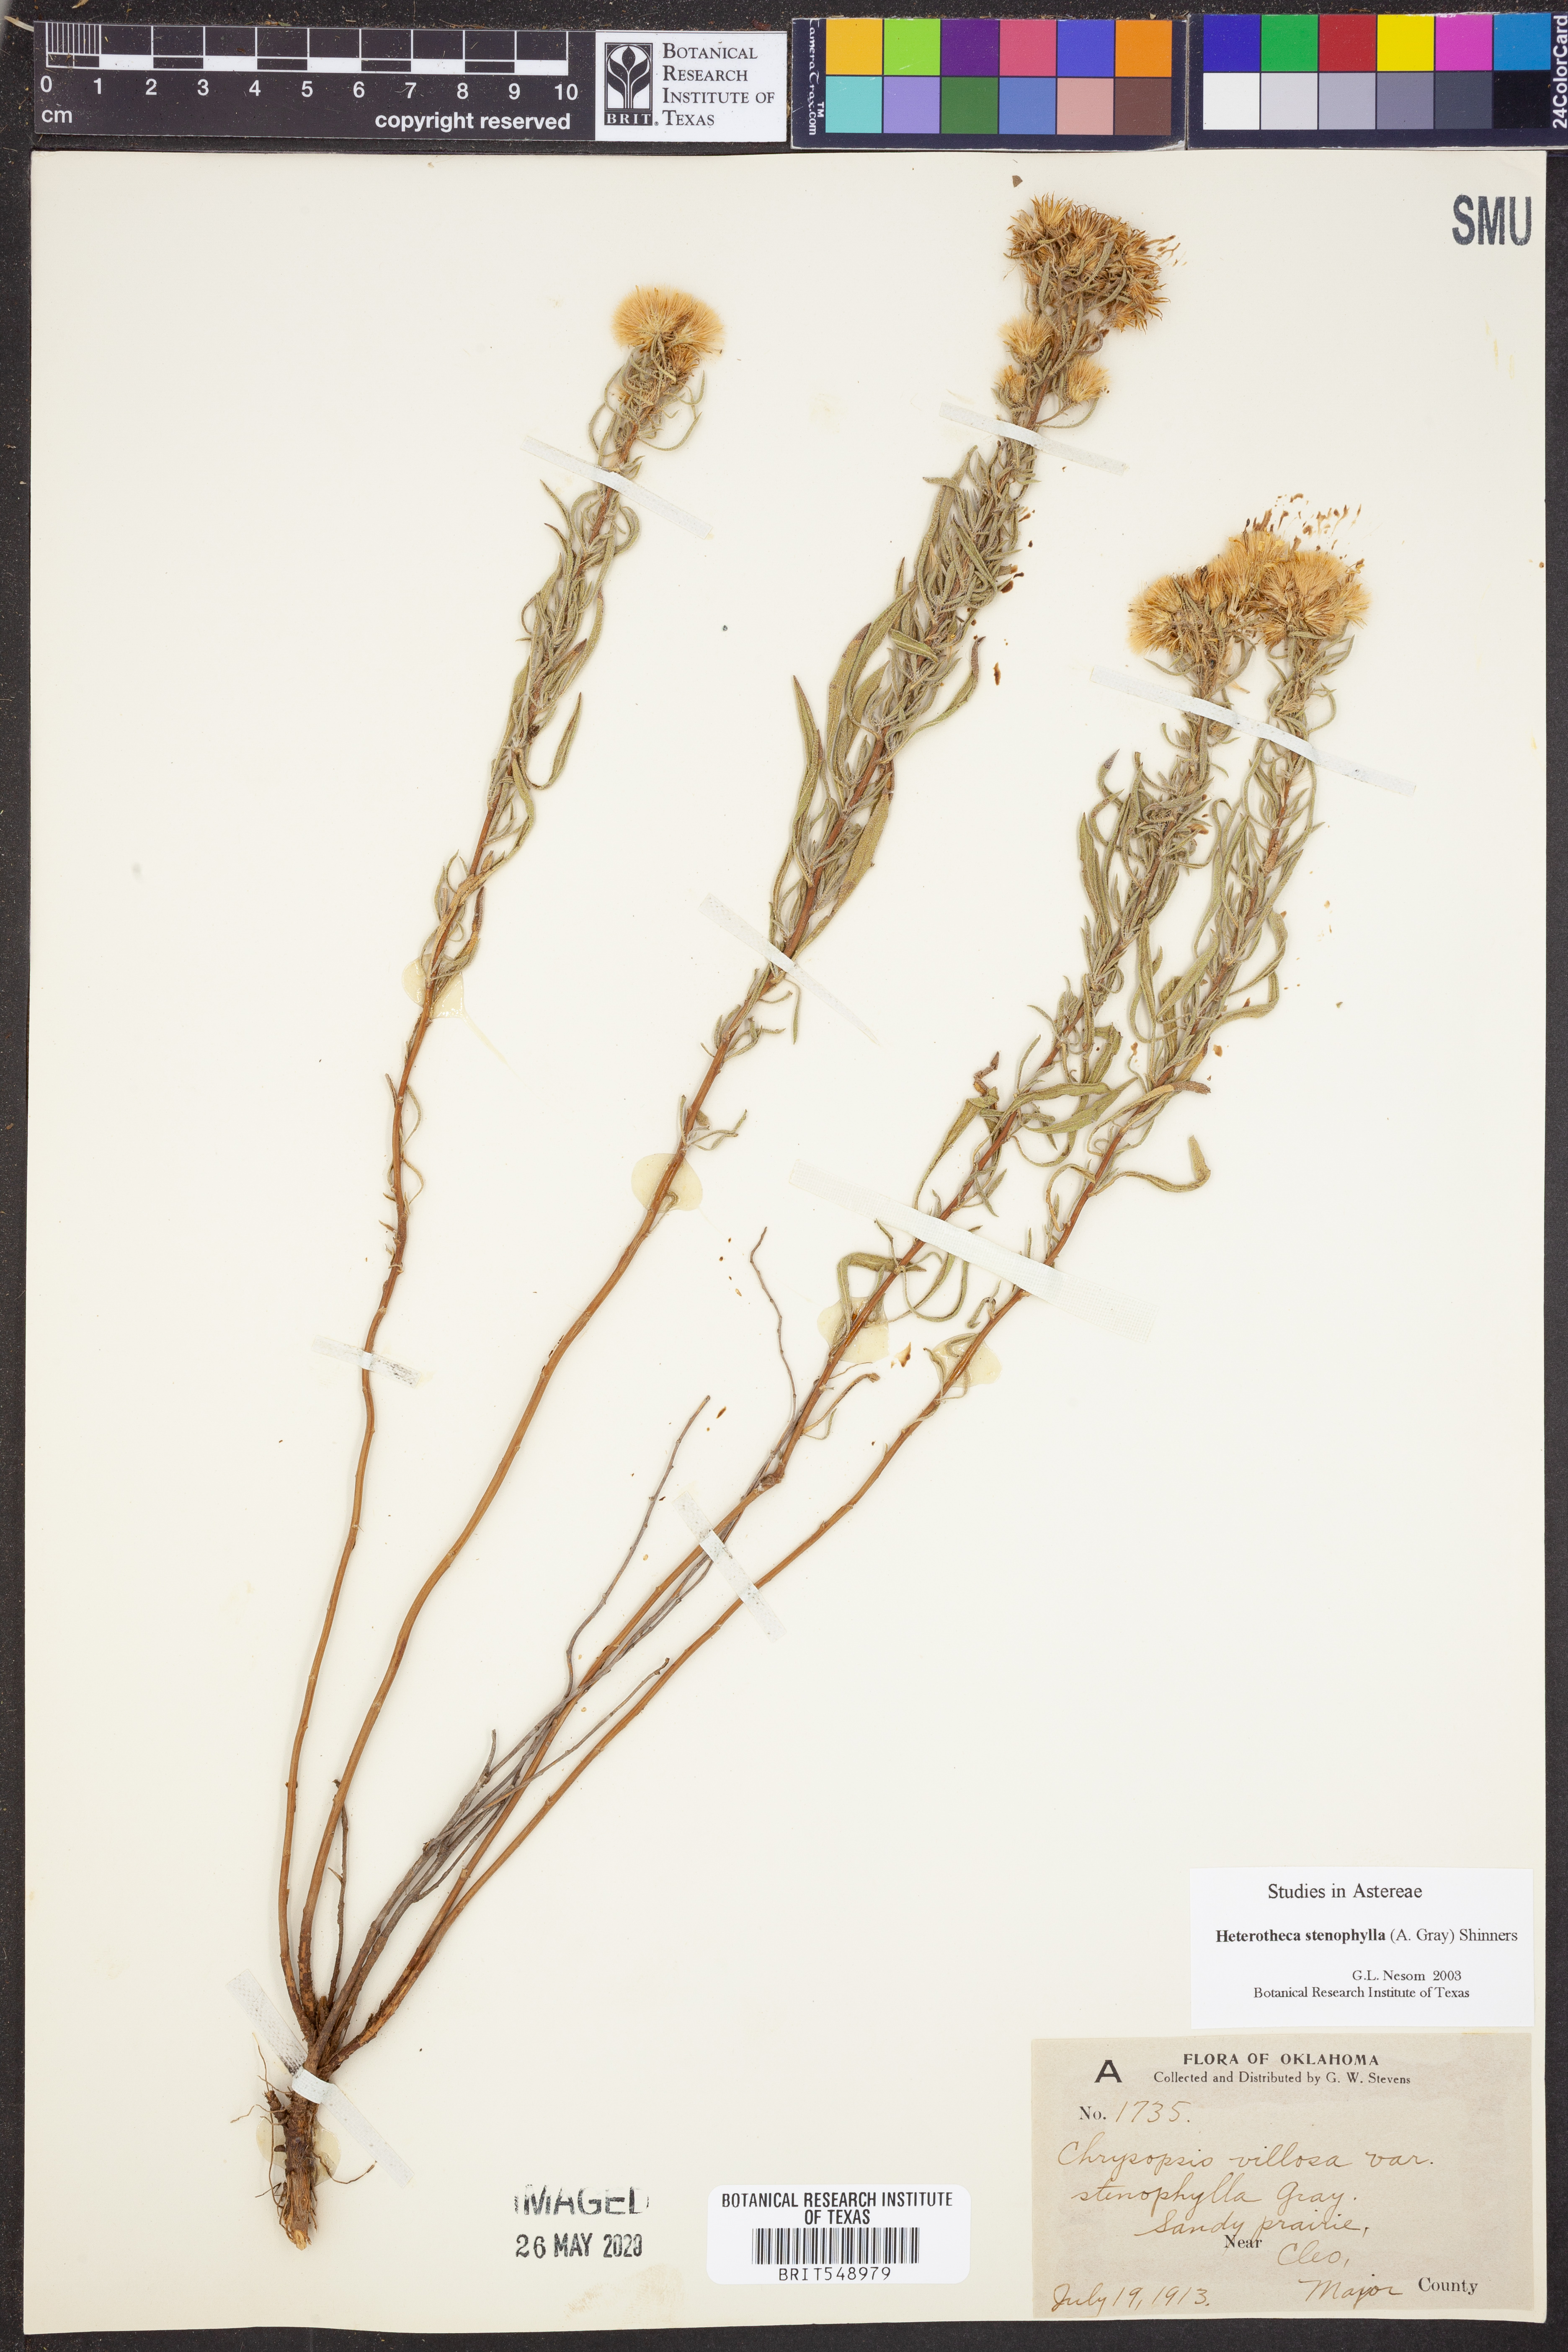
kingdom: Plantae
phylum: Tracheophyta
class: Magnoliopsida
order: Asterales
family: Asteraceae
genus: Heterotheca
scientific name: Heterotheca stenophylla
